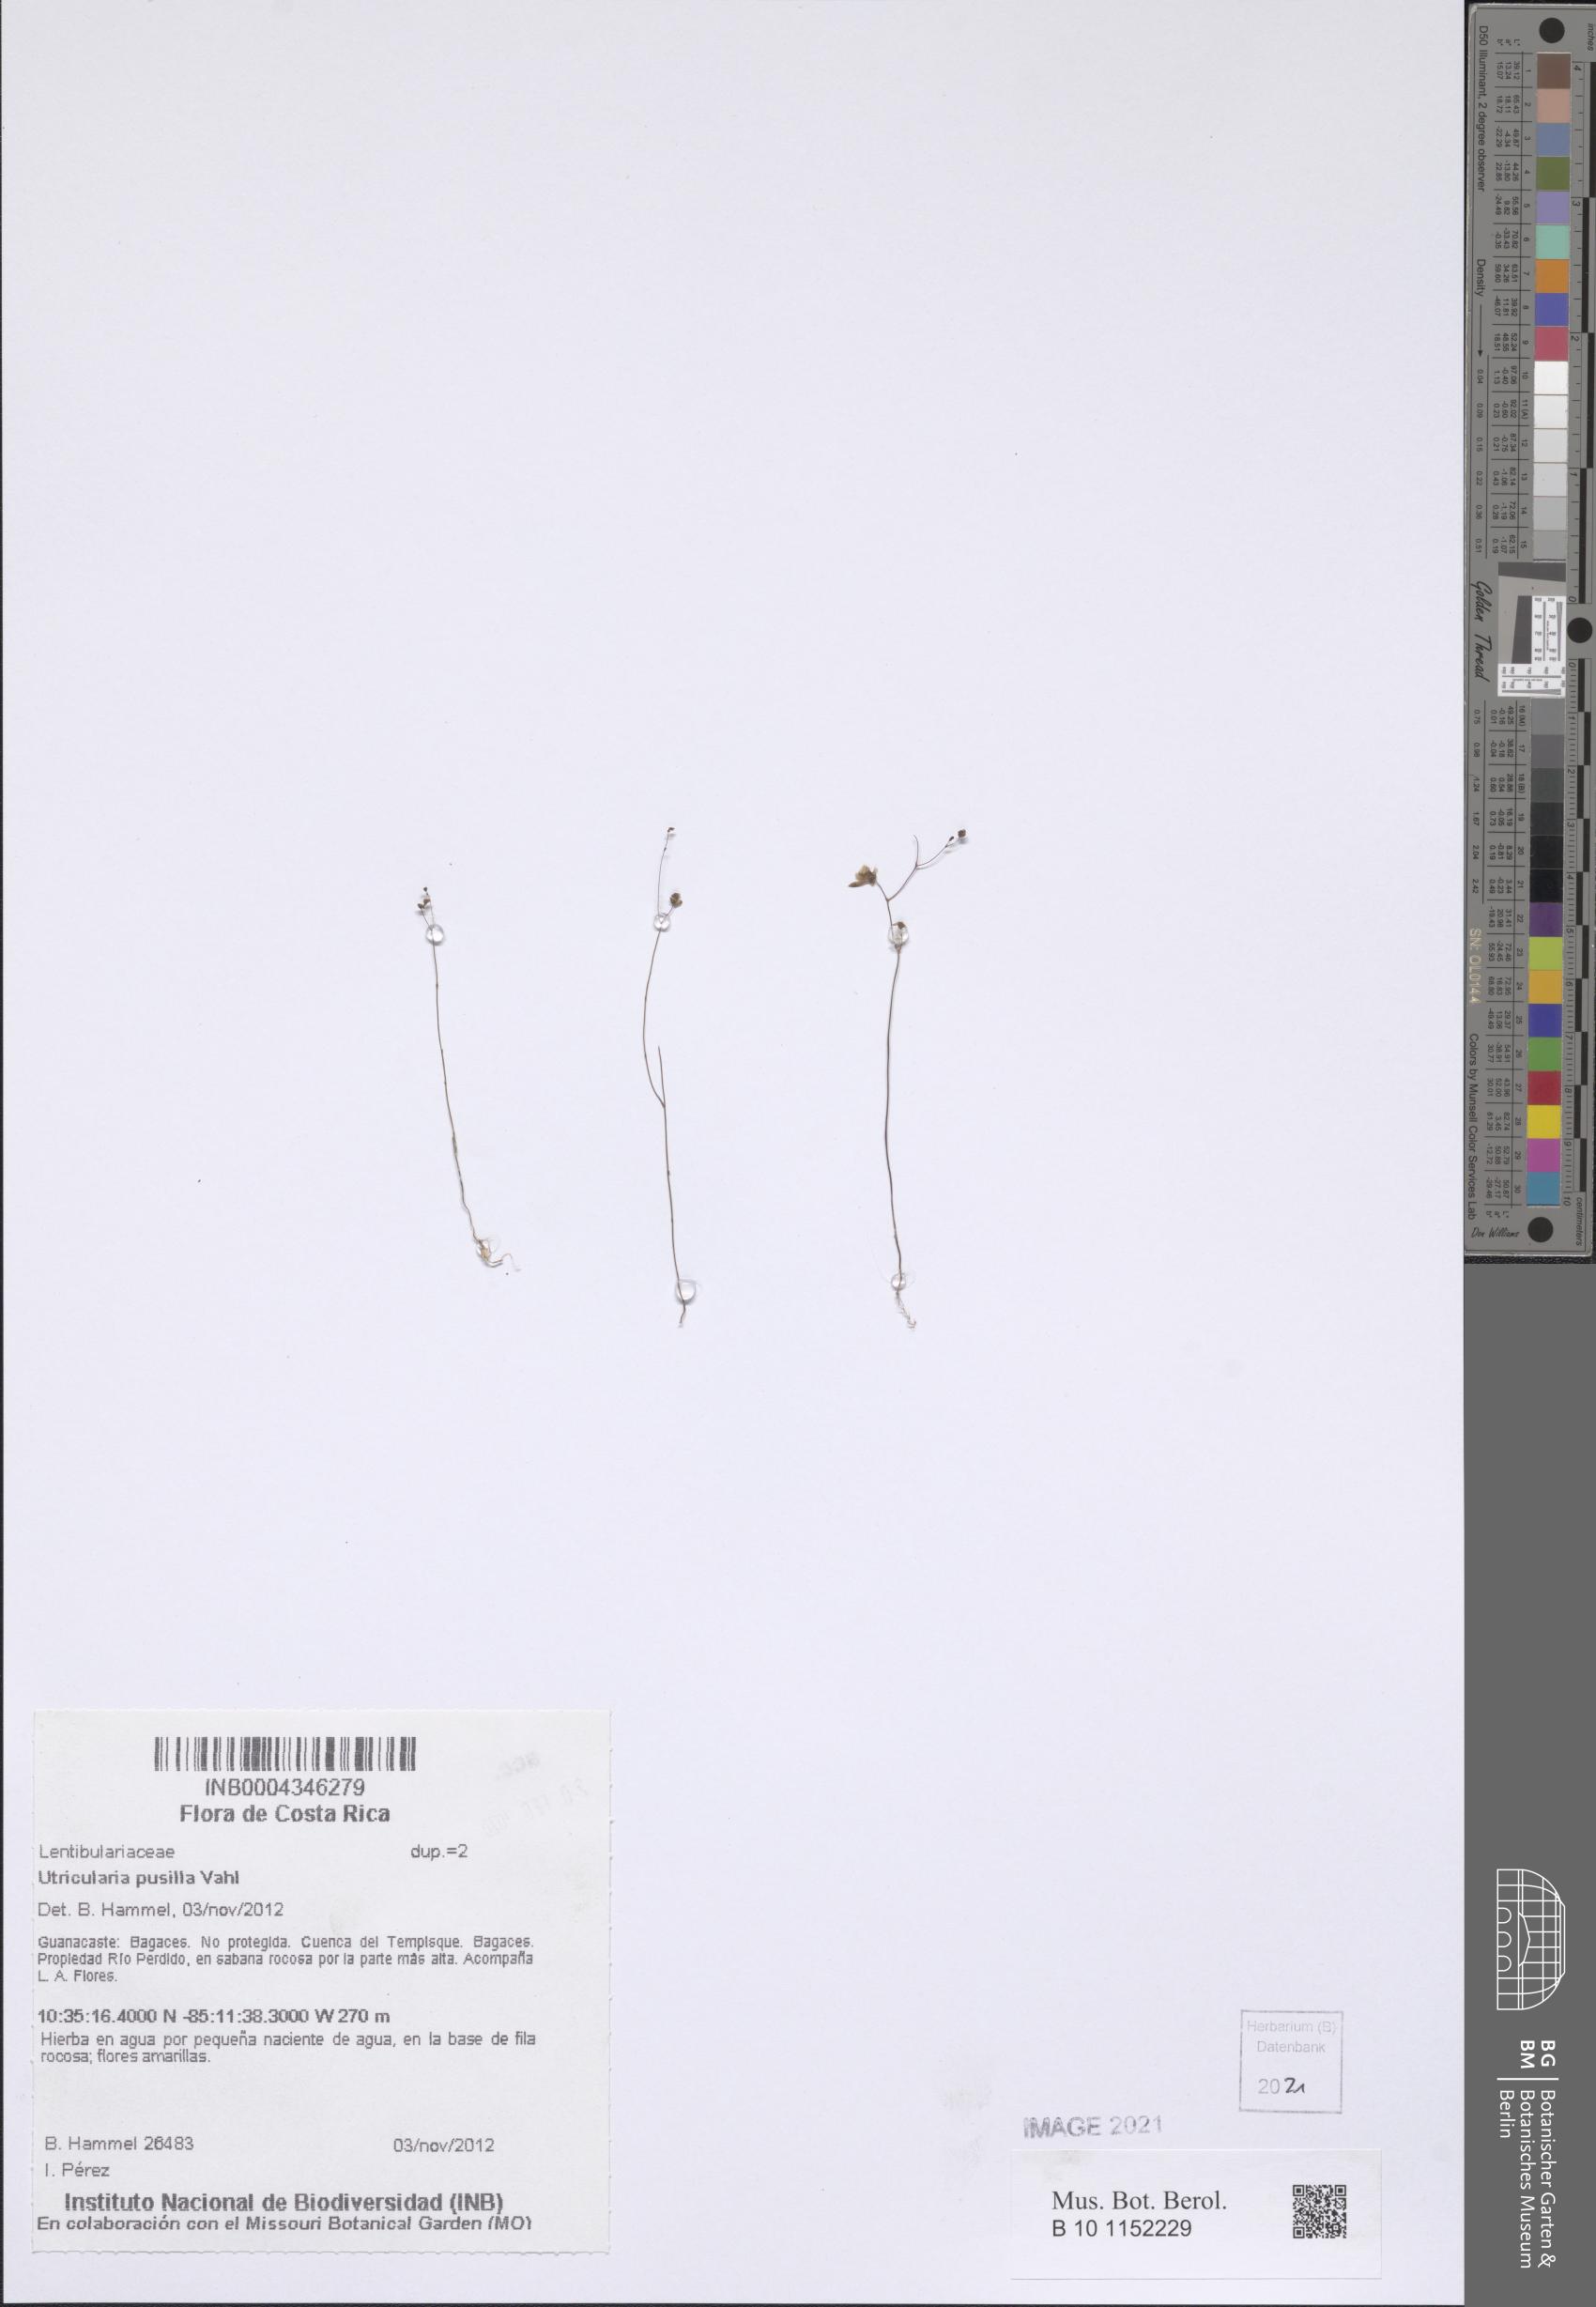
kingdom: Plantae
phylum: Tracheophyta
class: Magnoliopsida
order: Lamiales
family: Lentibulariaceae
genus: Utricularia
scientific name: Utricularia pusilla
